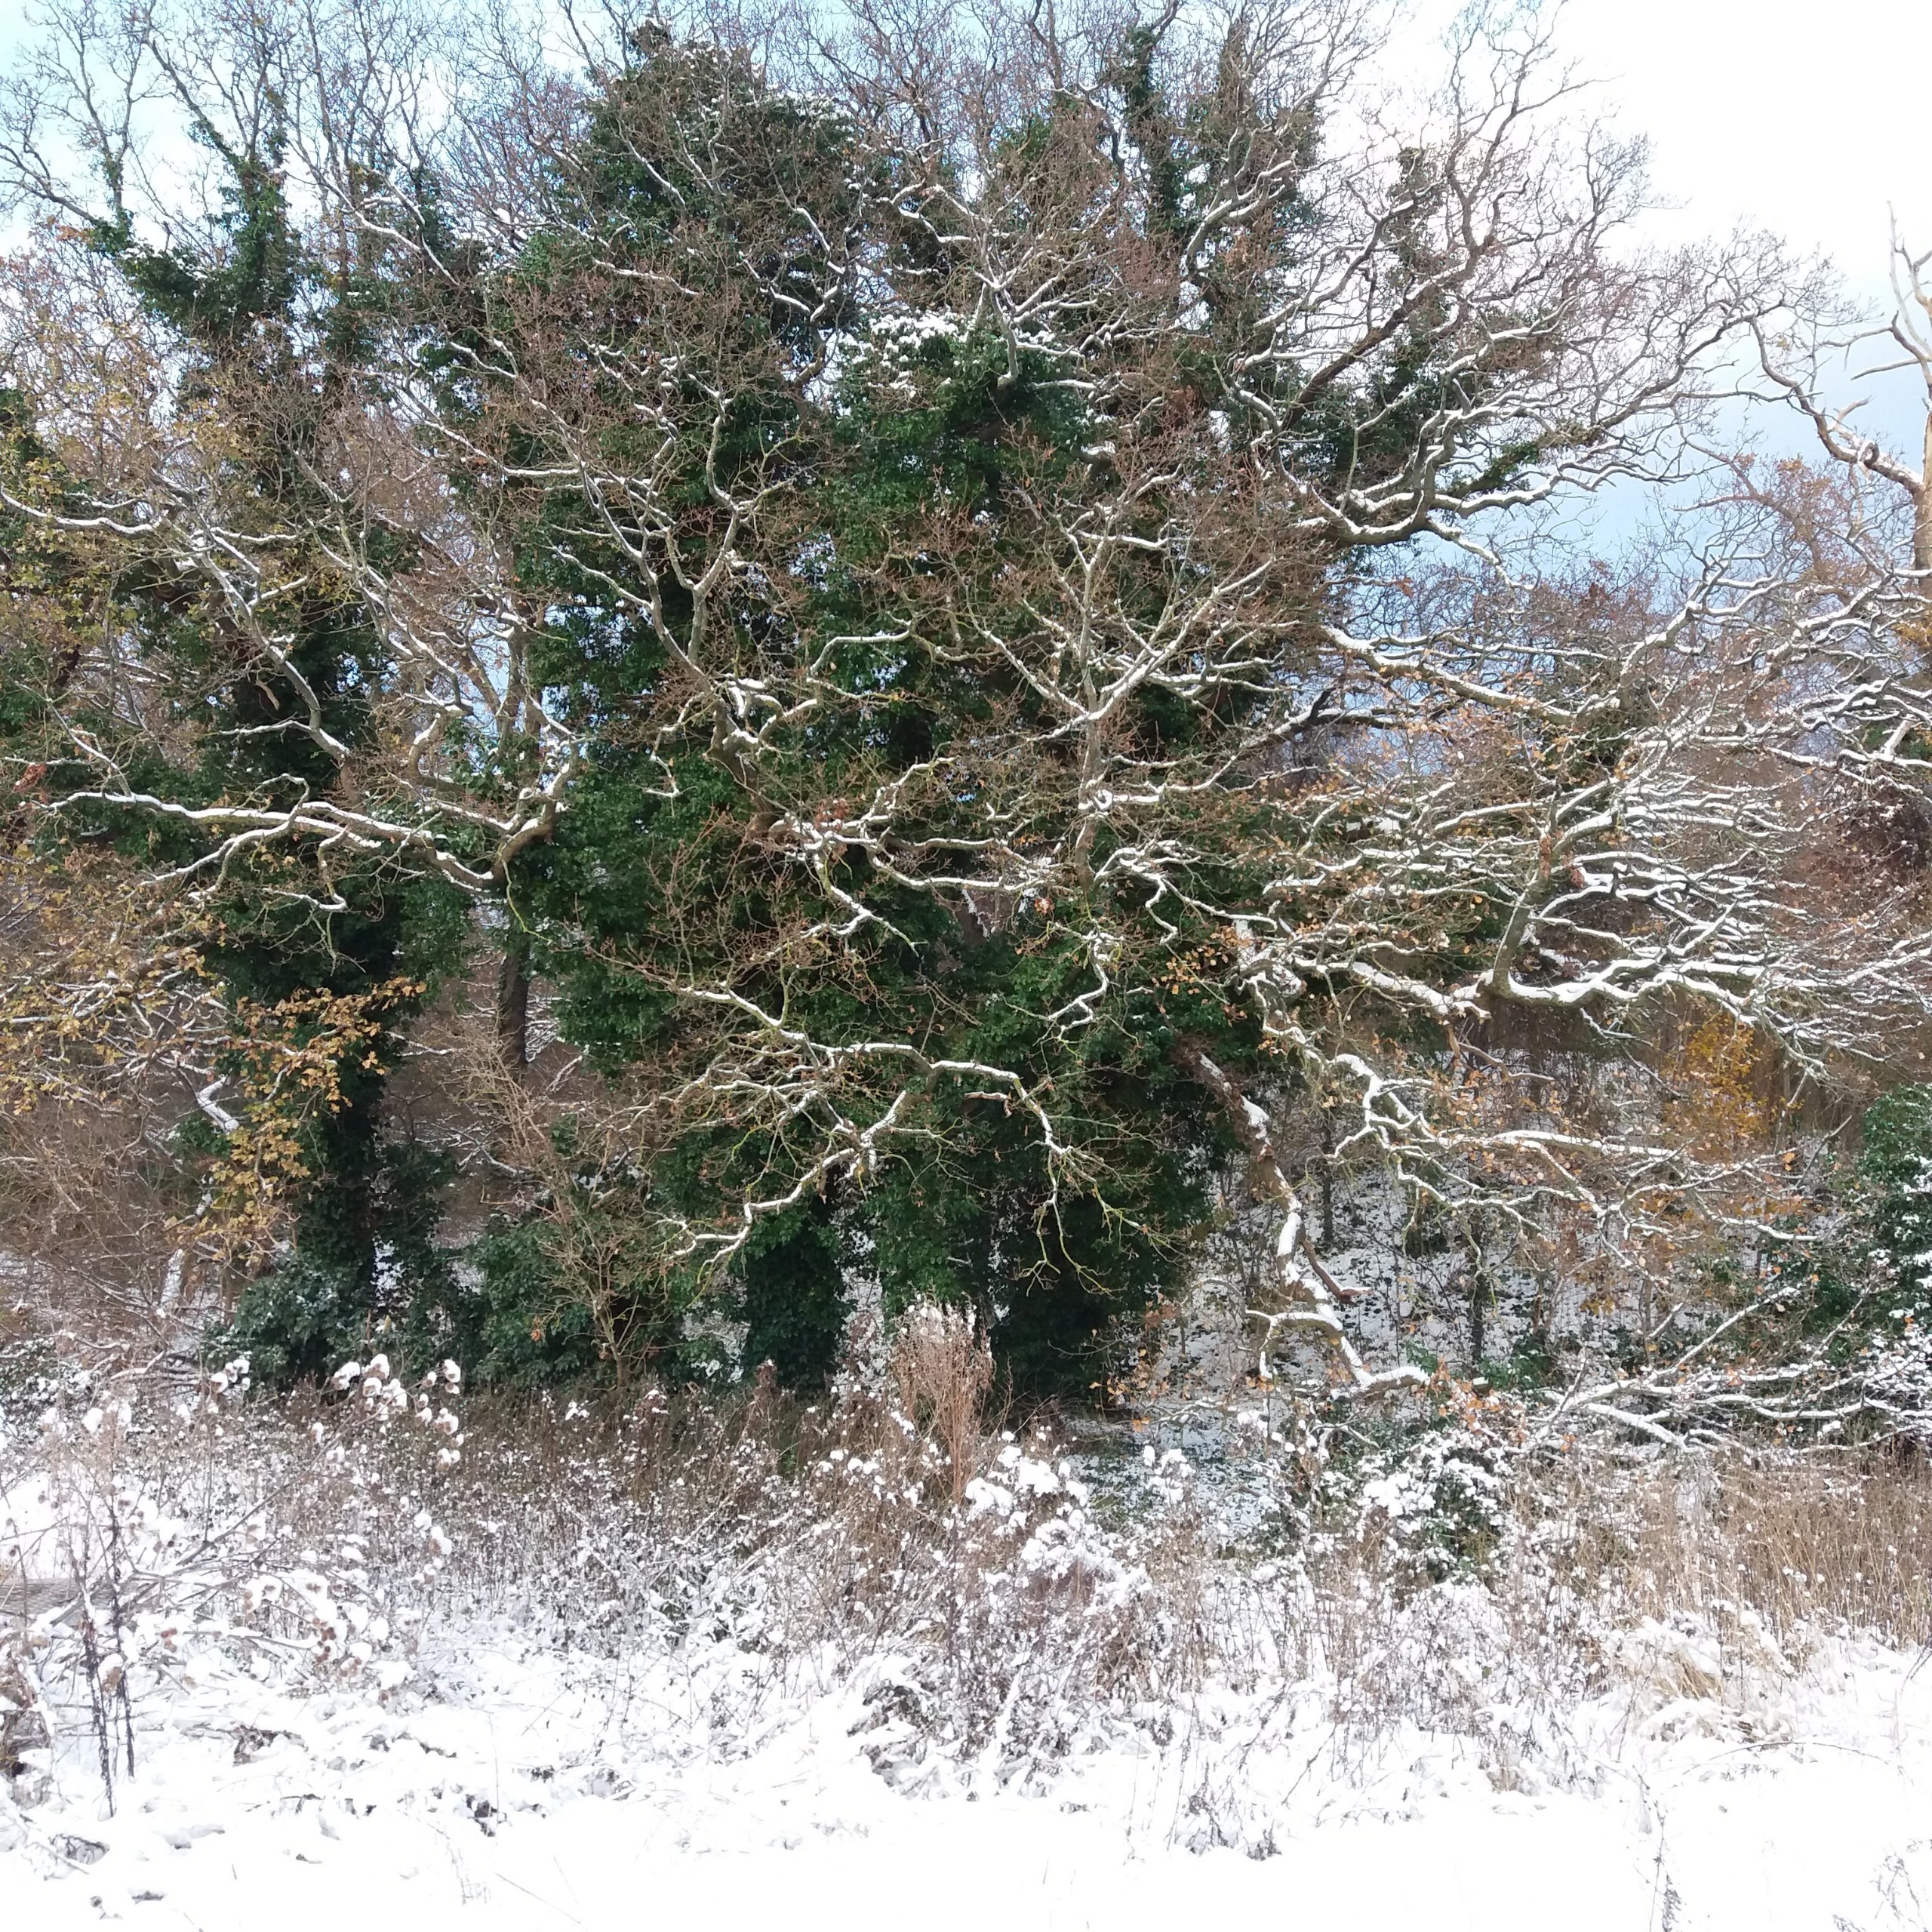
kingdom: Plantae
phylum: Tracheophyta
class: Magnoliopsida
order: Fagales
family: Fagaceae
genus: Quercus
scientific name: Quercus robur
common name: Stilk-eg/almindelig eg
